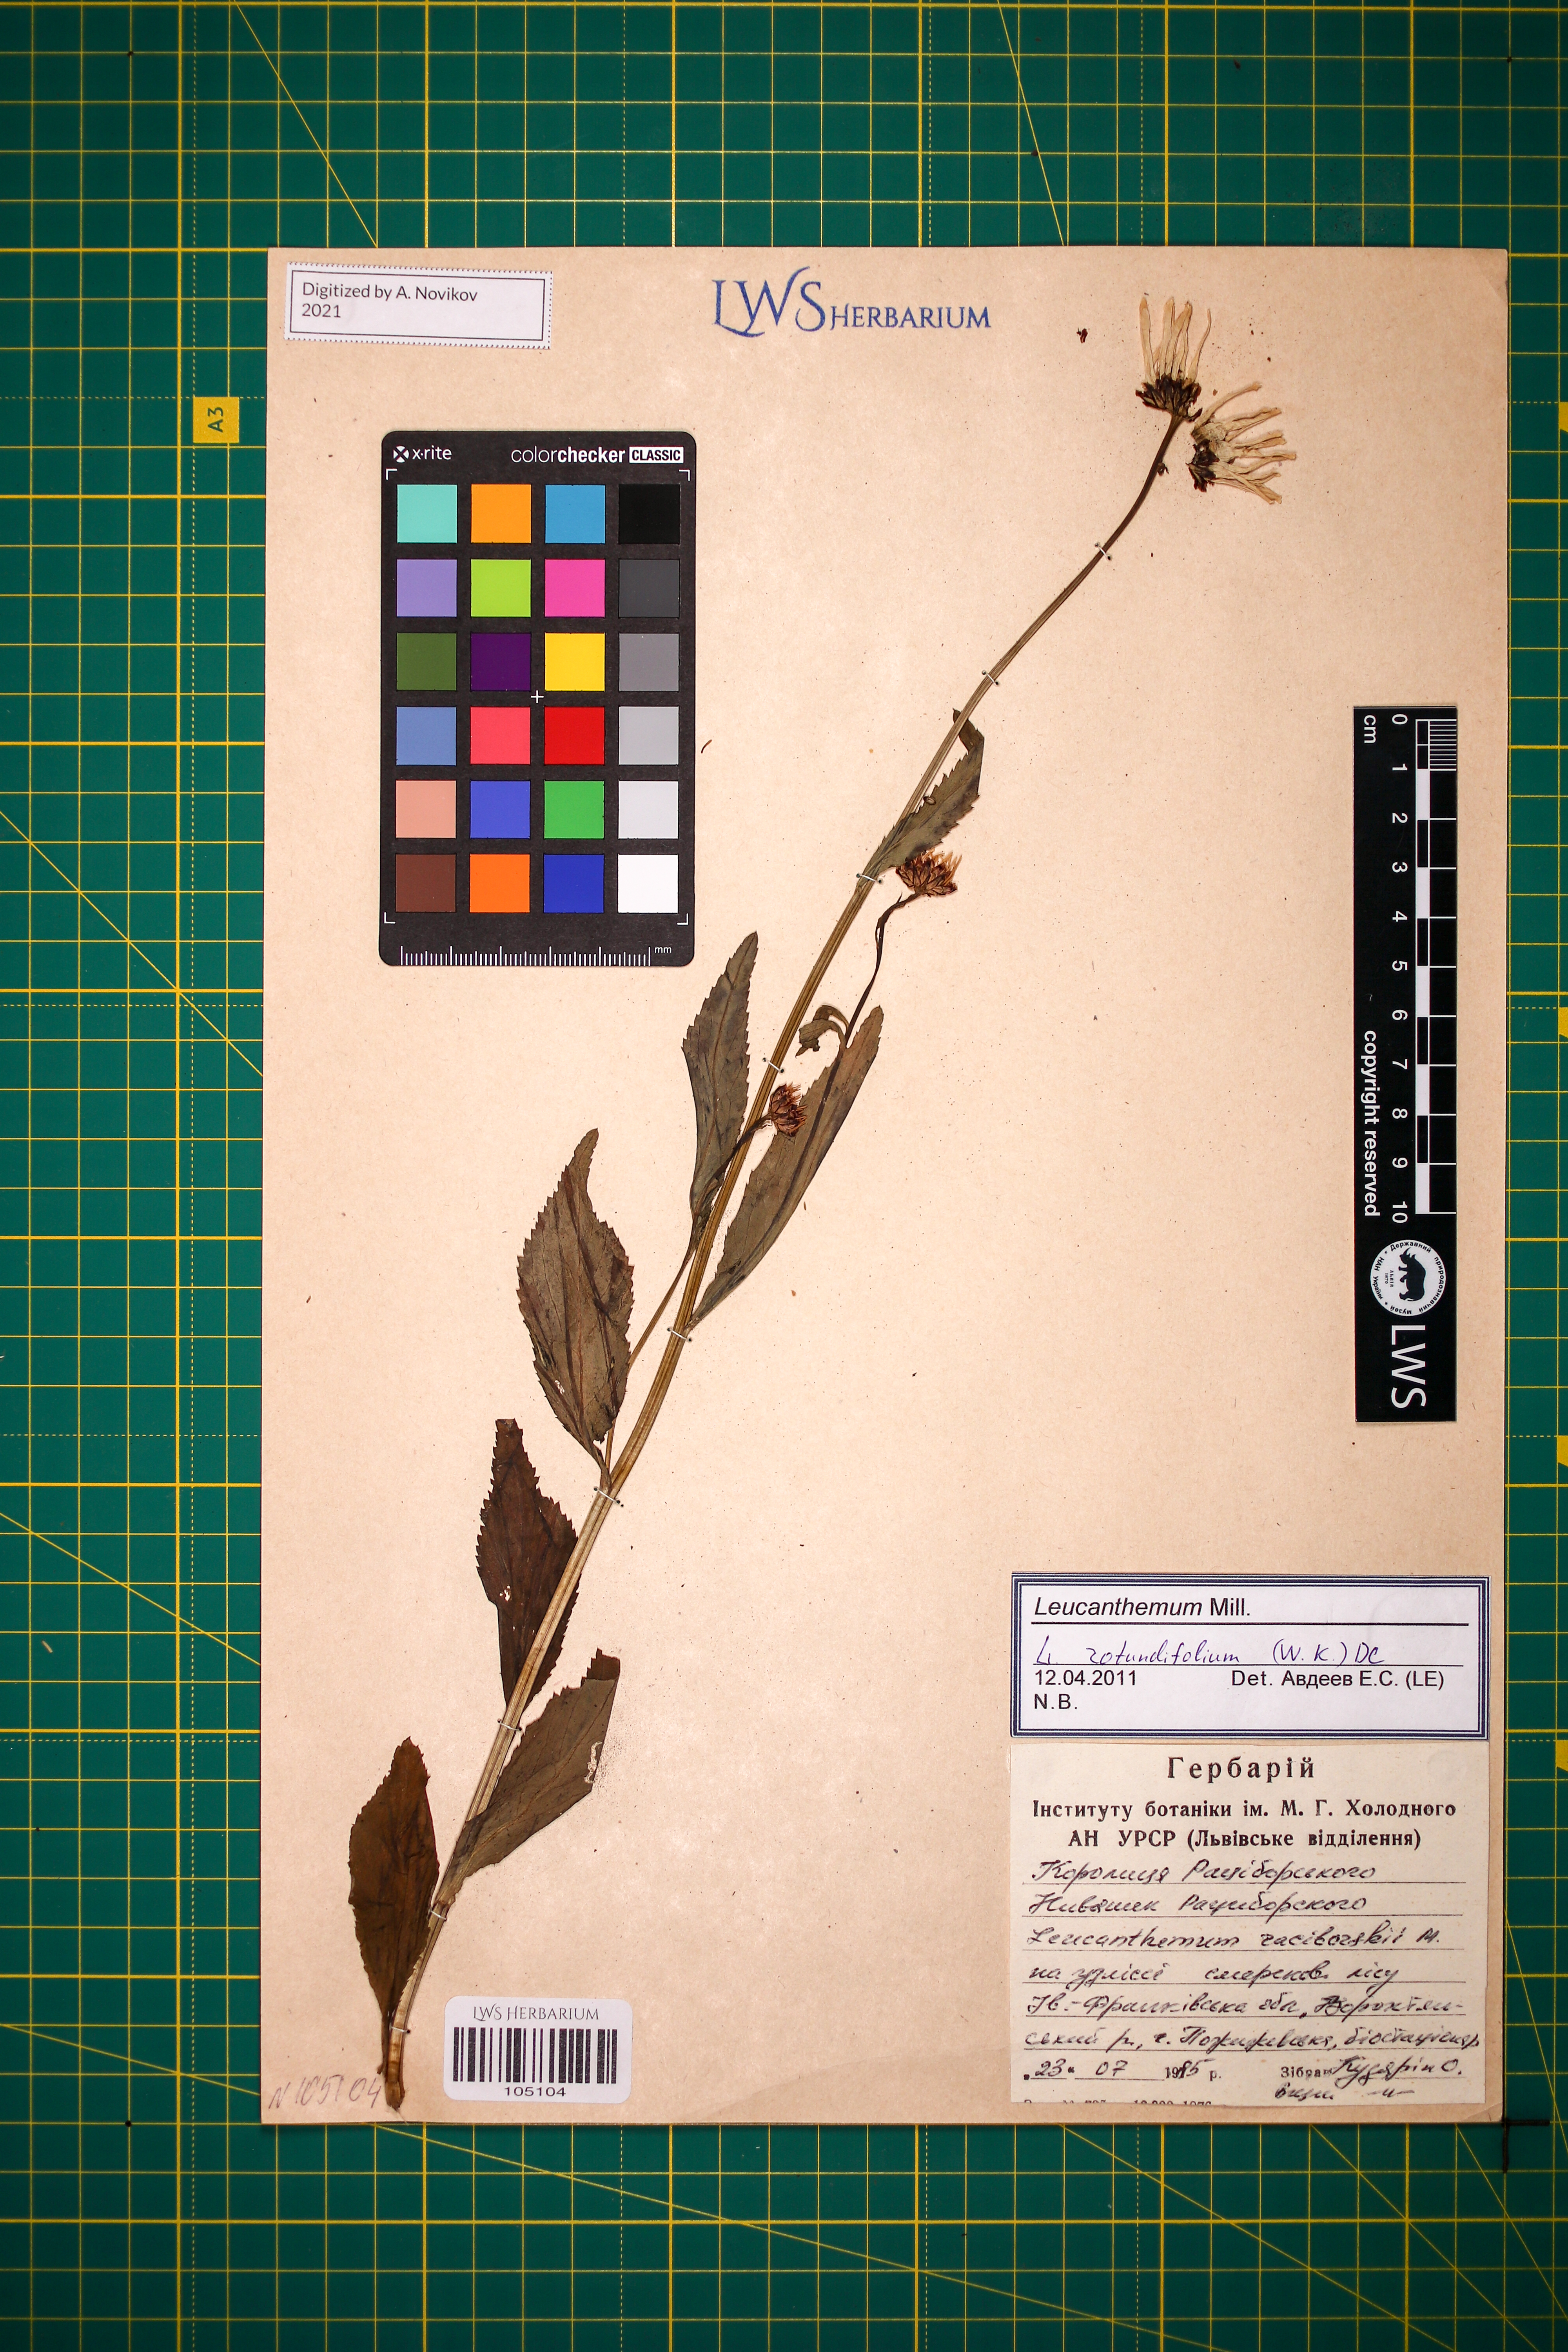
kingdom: Plantae
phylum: Tracheophyta
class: Magnoliopsida
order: Asterales
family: Asteraceae
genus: Leucanthemum
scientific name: Leucanthemum rotundifolium
